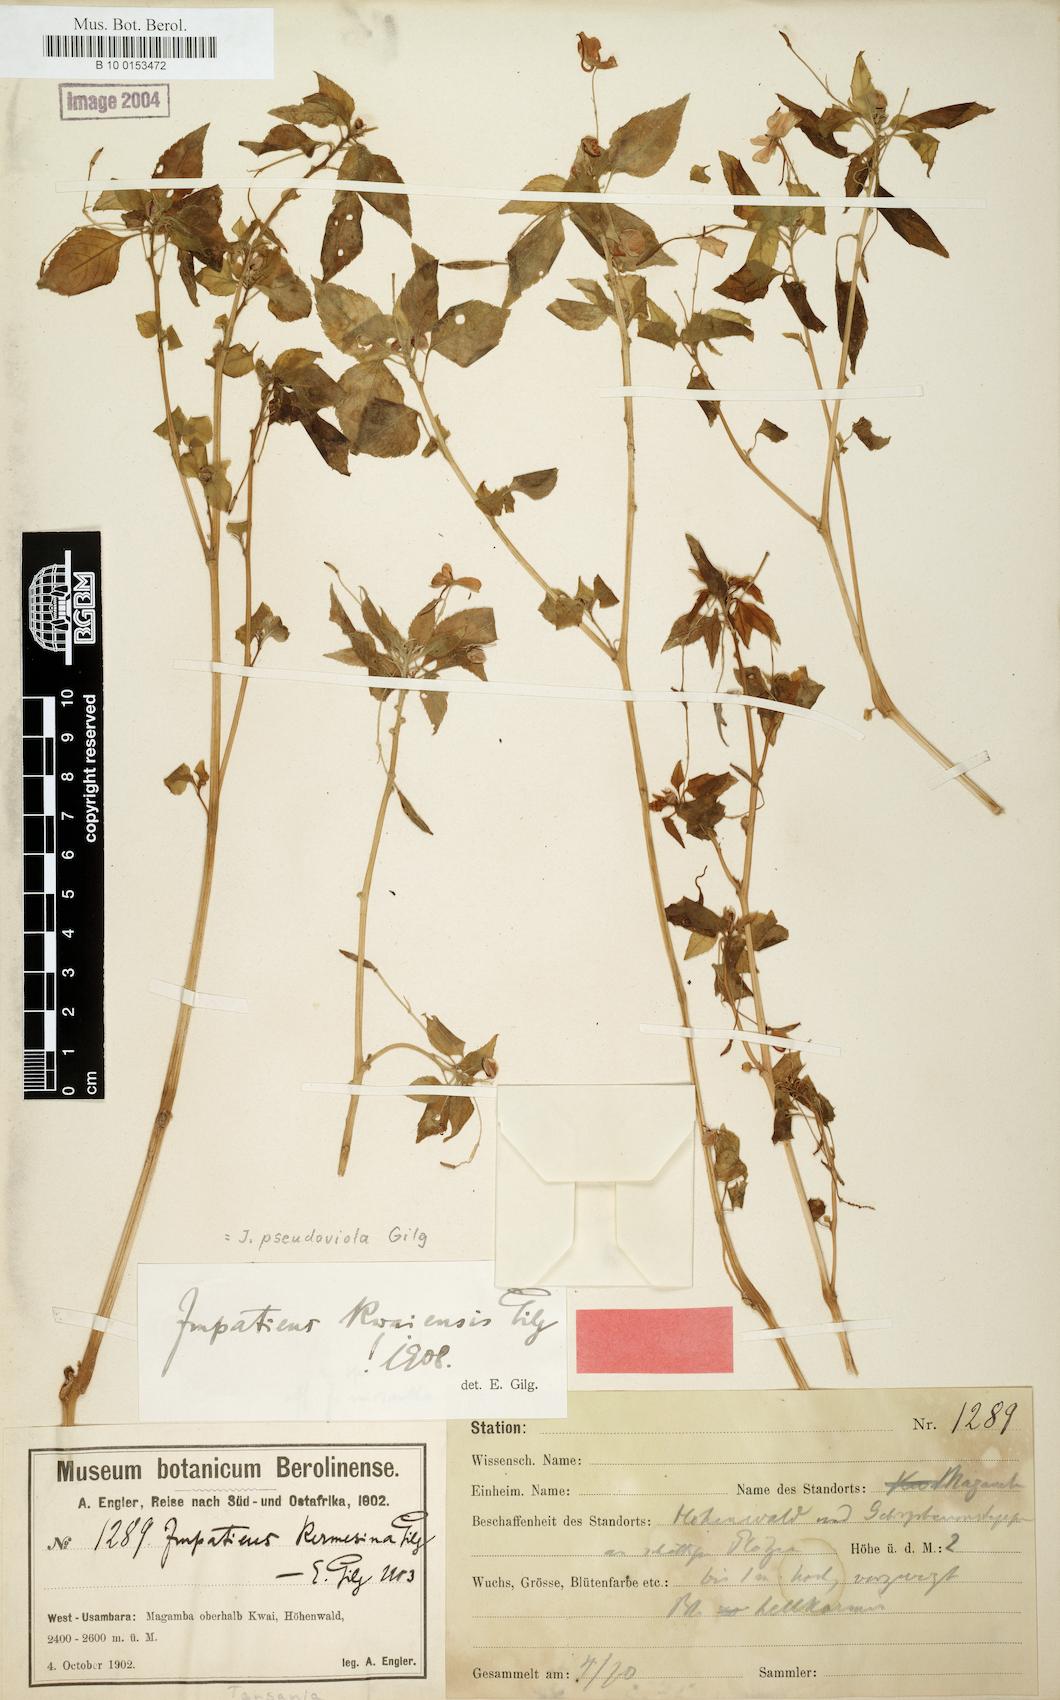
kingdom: Plantae
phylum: Tracheophyta
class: Magnoliopsida
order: Ericales
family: Balsaminaceae
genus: Impatiens
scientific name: Impatiens pseudoviola
